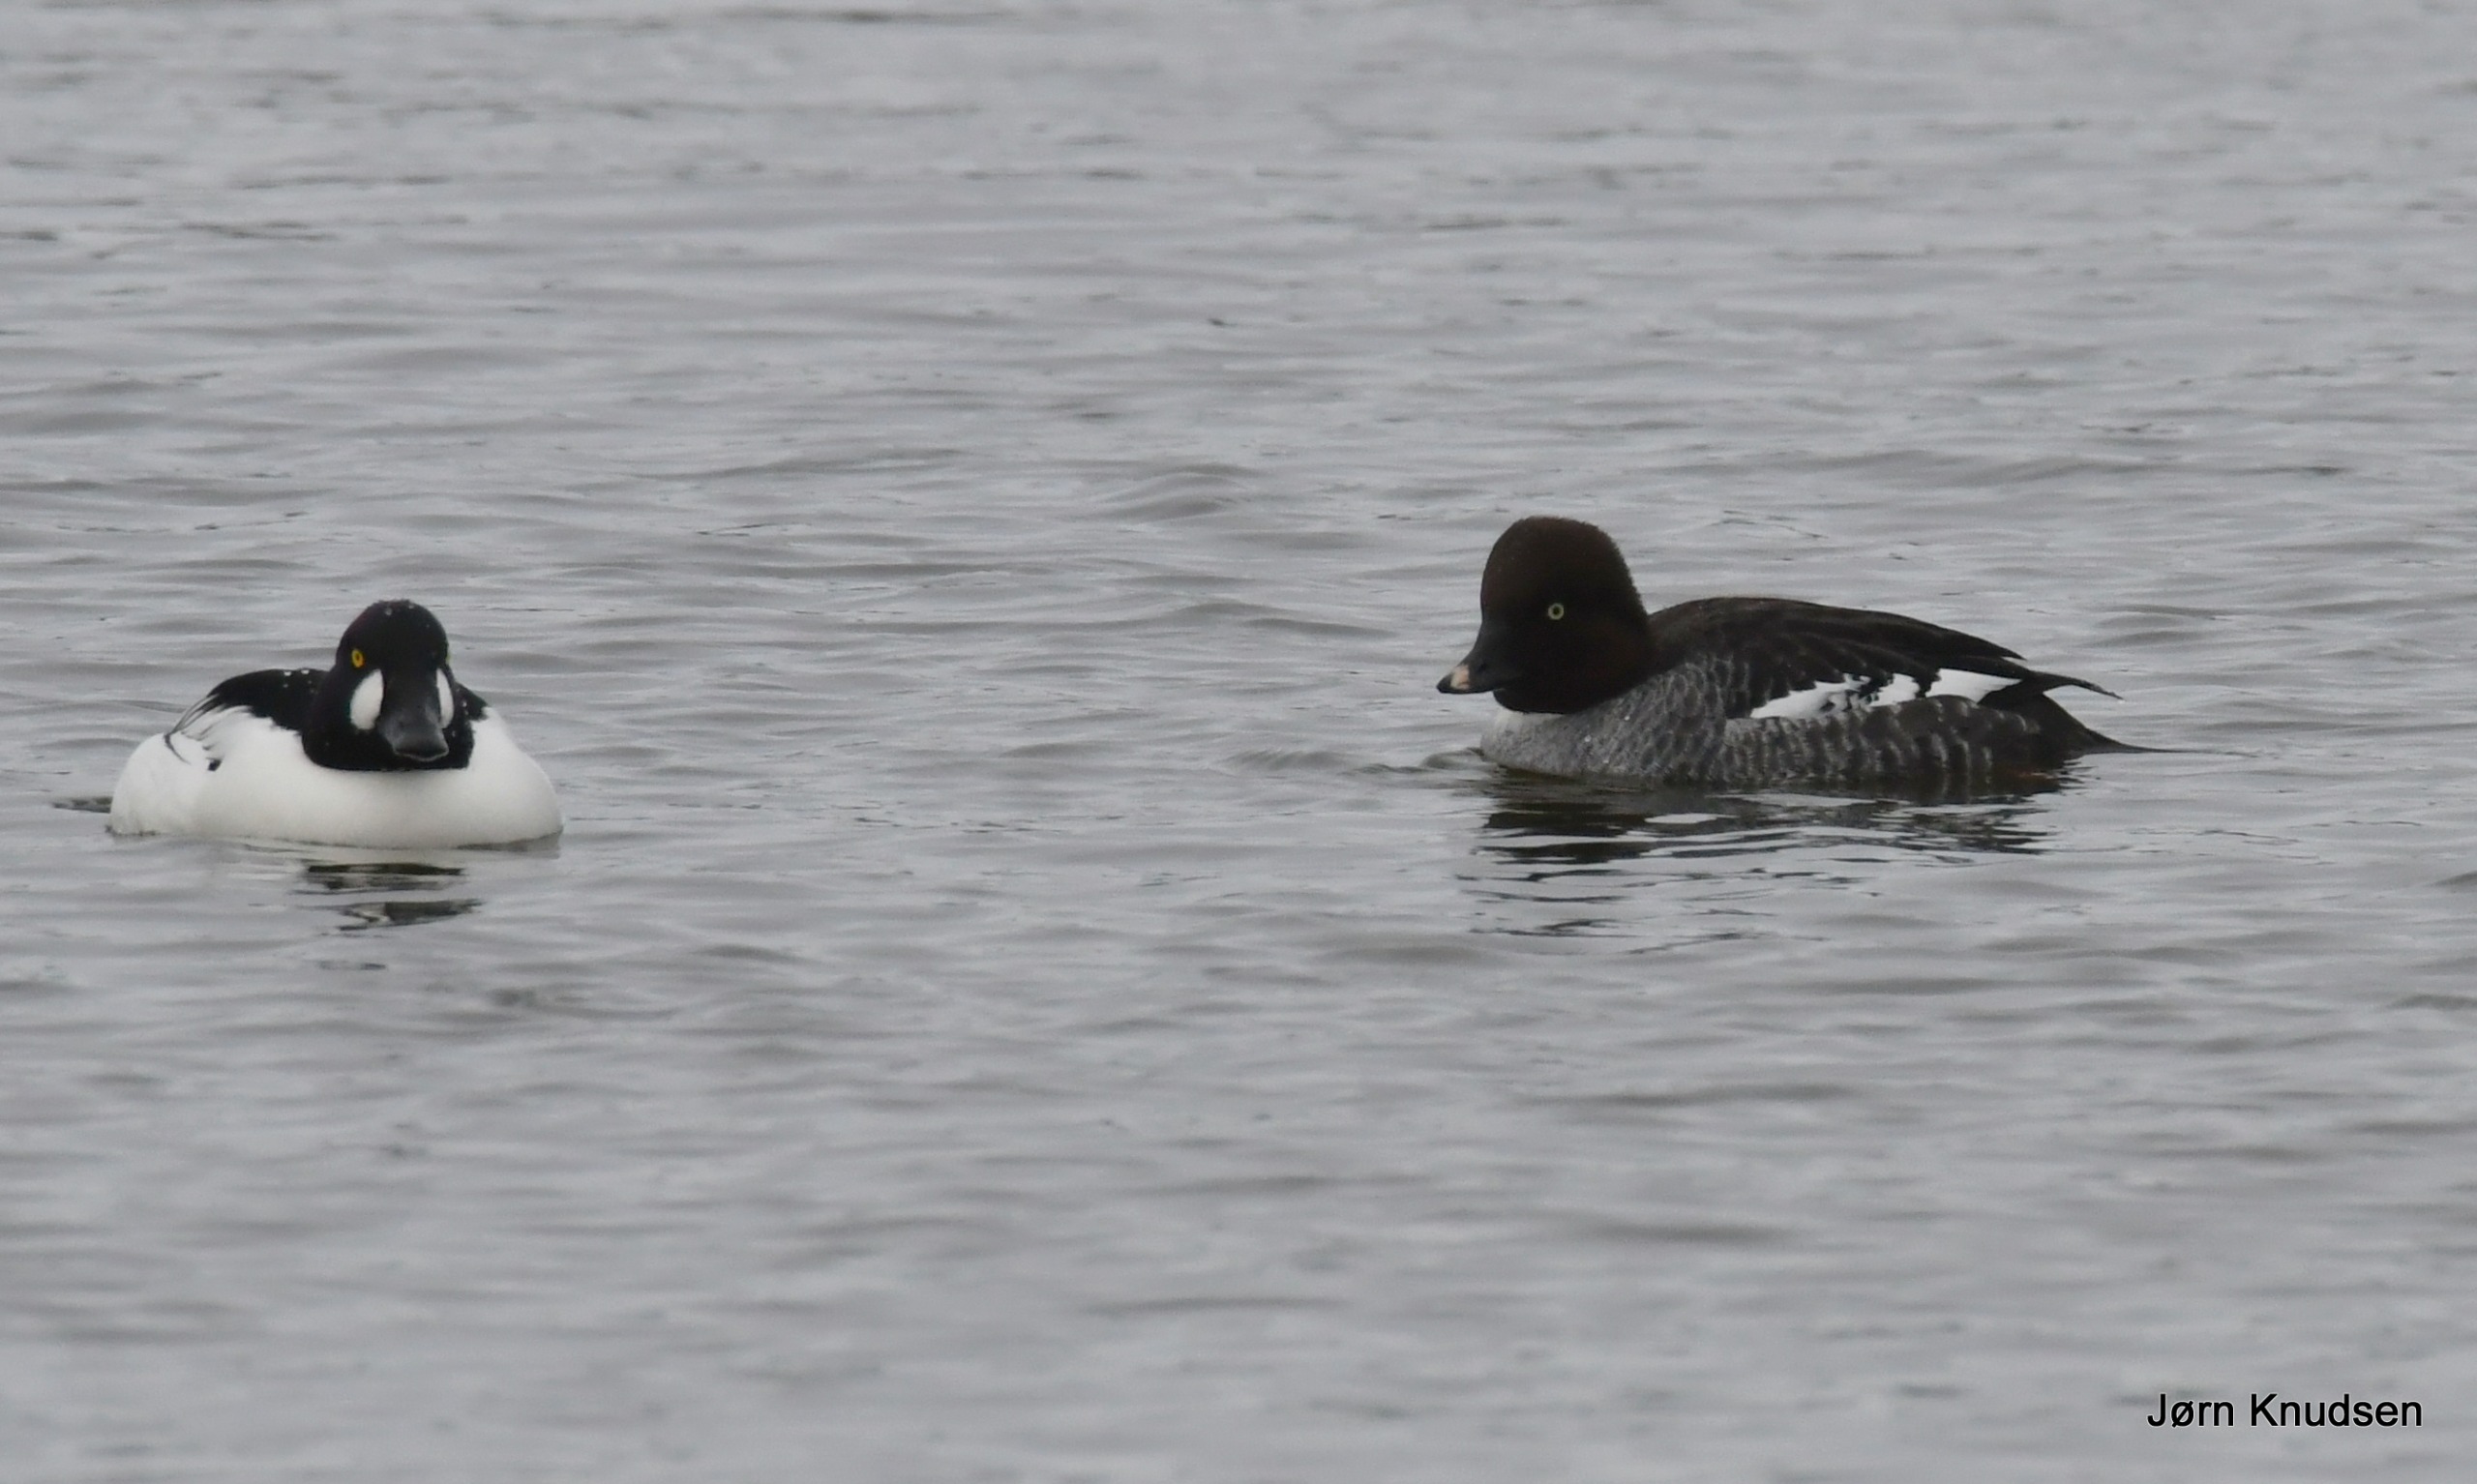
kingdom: Animalia
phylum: Chordata
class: Aves
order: Anseriformes
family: Anatidae
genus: Bucephala
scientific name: Bucephala clangula
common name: Hvinand
